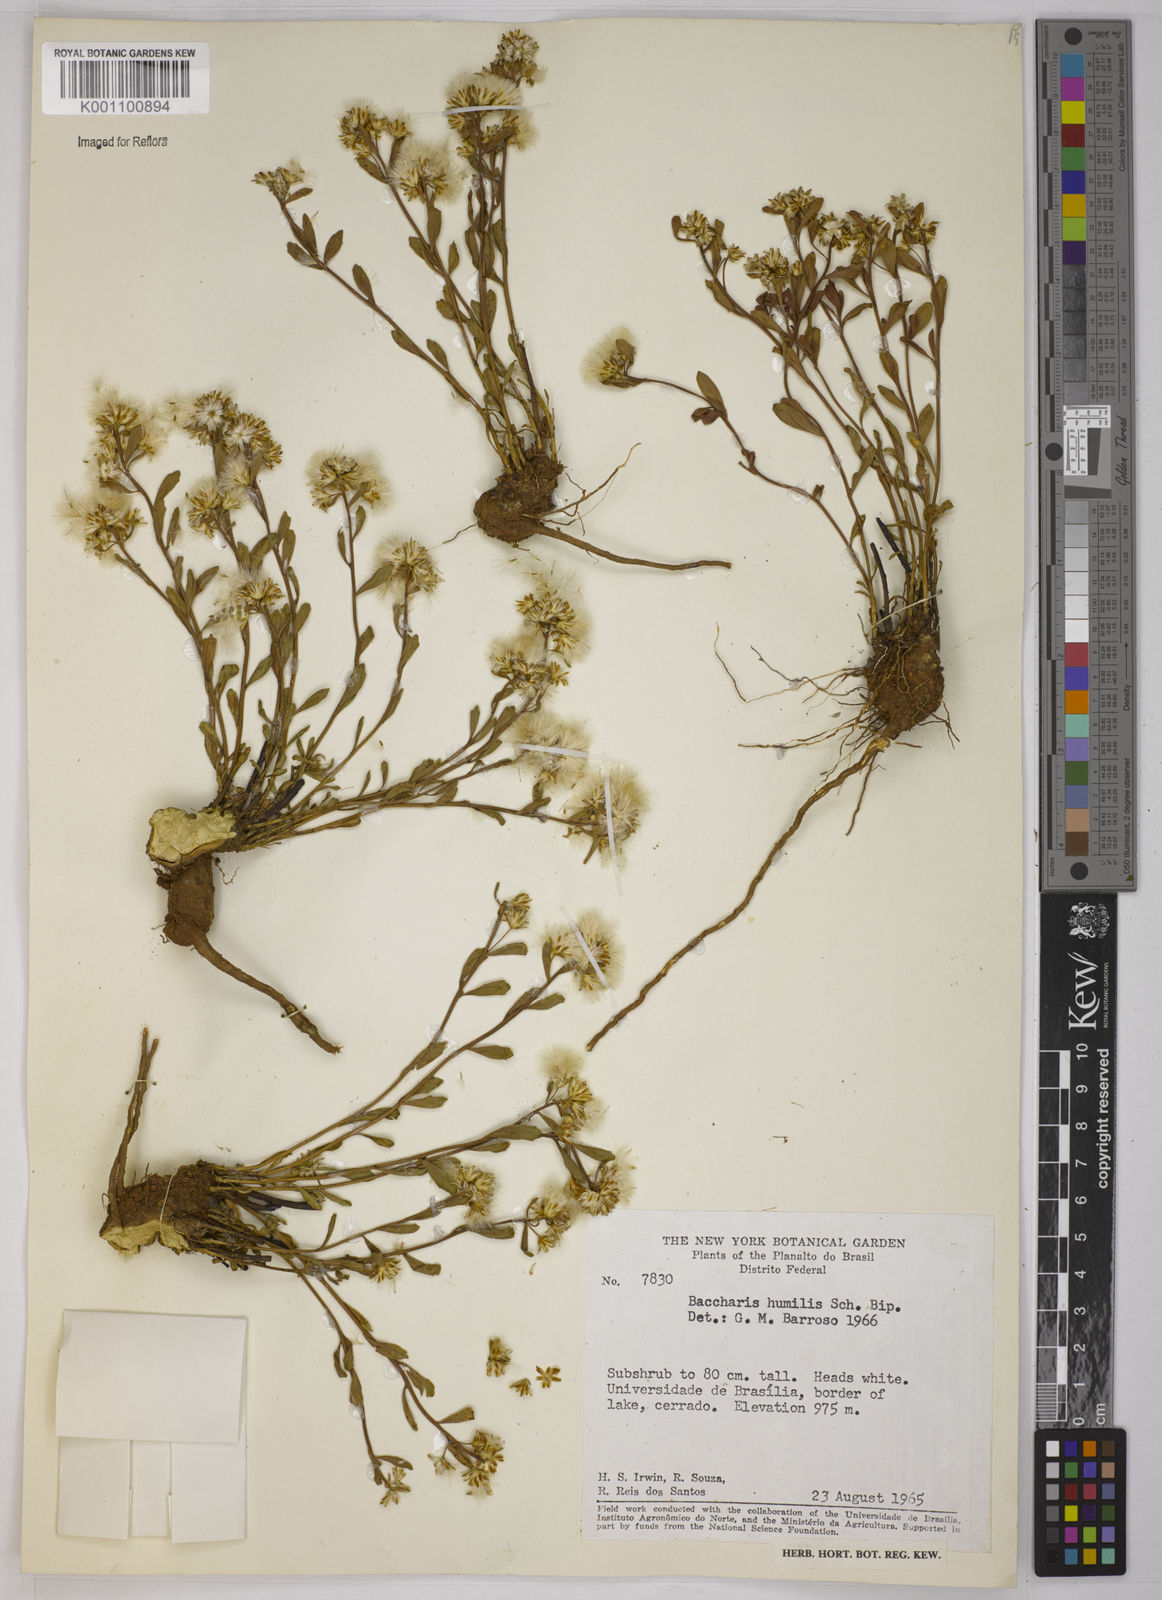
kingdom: Plantae
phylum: Tracheophyta
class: Magnoliopsida
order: Asterales
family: Asteraceae
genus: Baccharis
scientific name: Baccharis humilis
